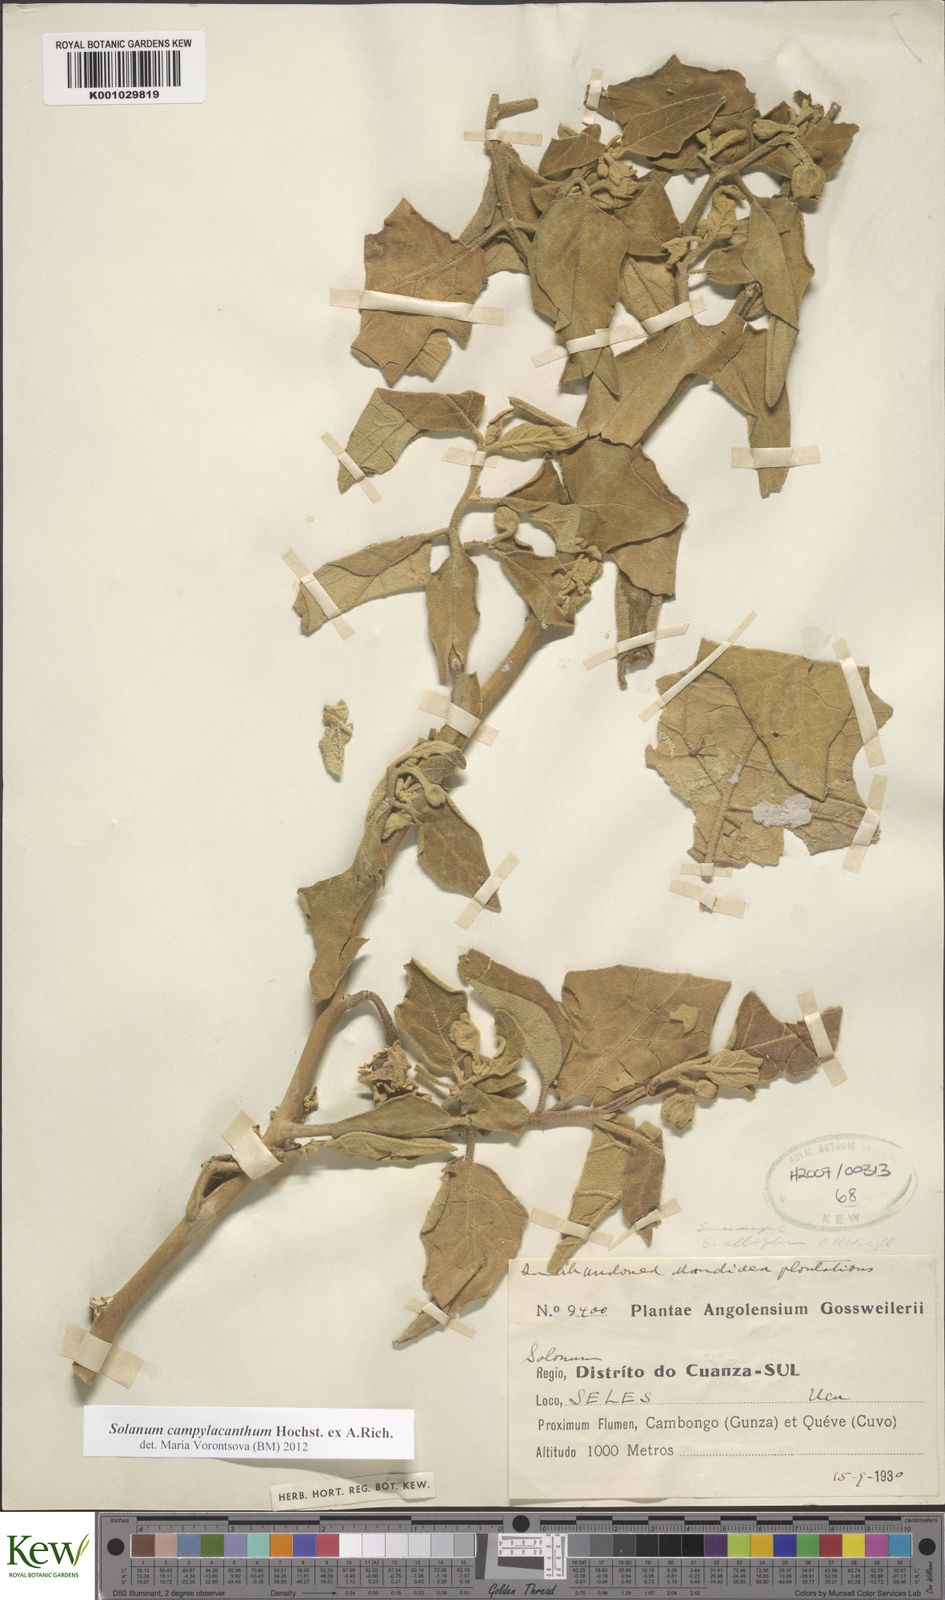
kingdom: Plantae
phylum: Tracheophyta
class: Magnoliopsida
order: Solanales
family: Solanaceae
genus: Solanum
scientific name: Solanum campylacanthum
